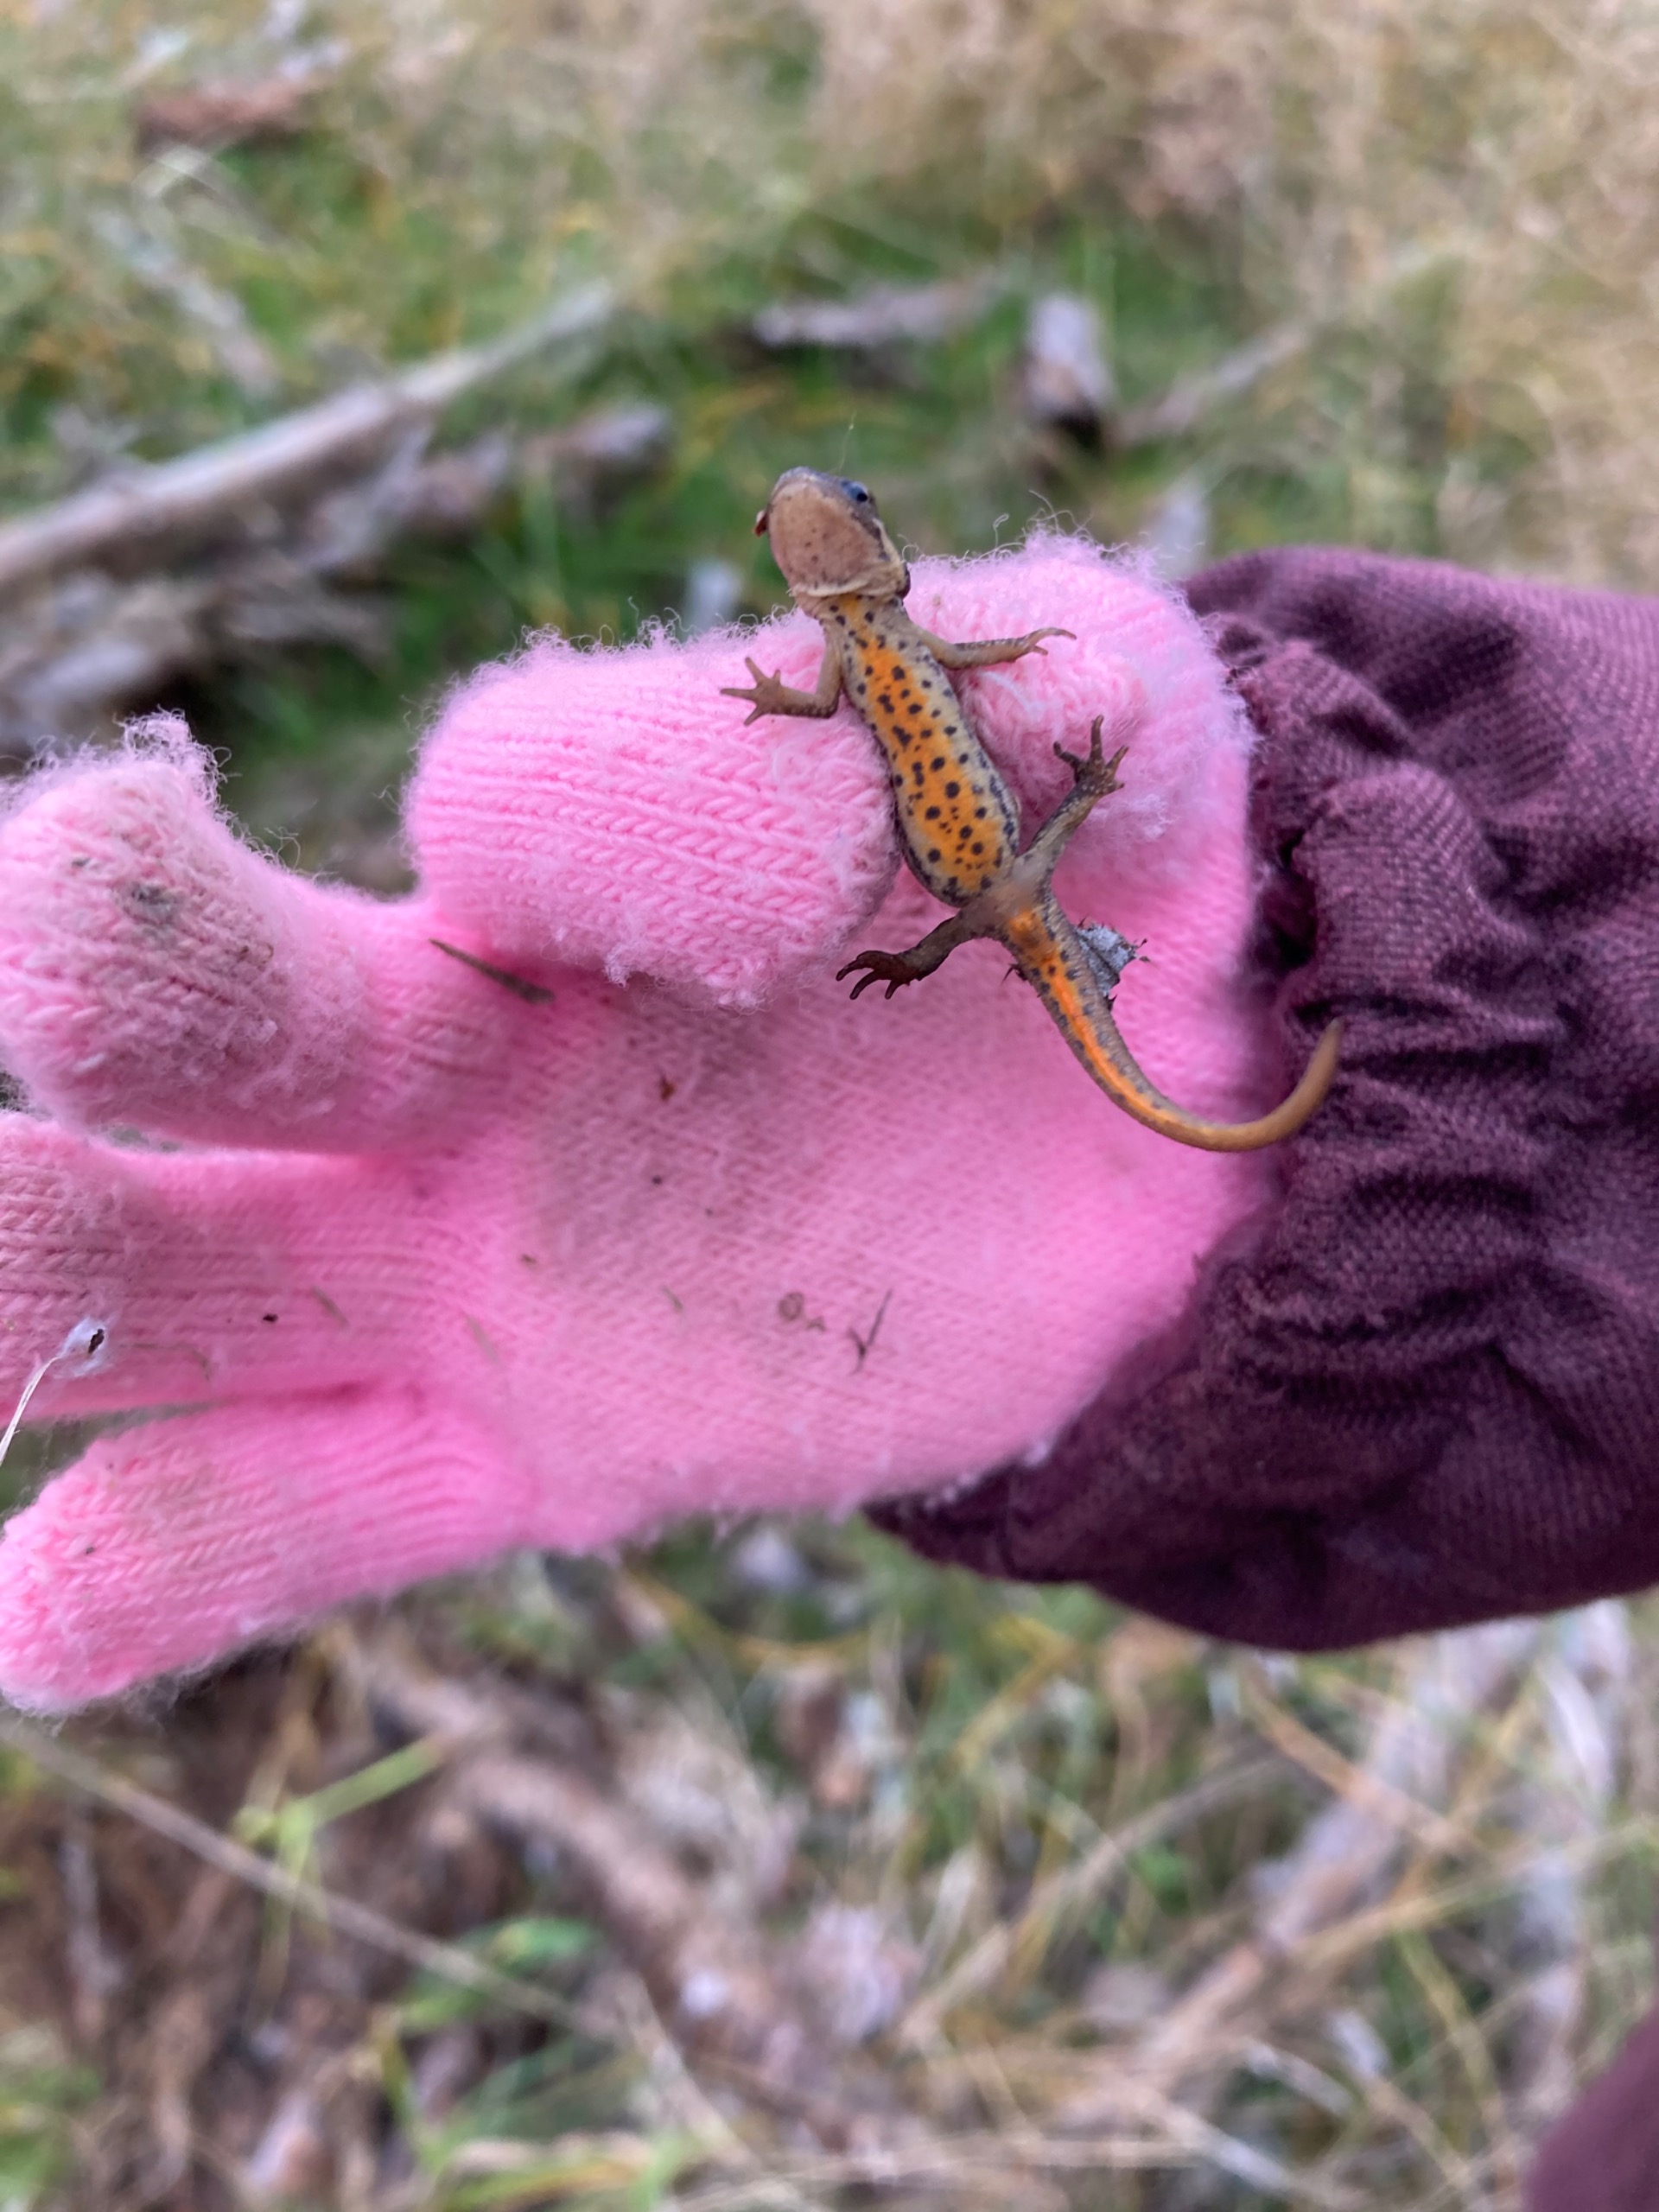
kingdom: Animalia
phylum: Chordata
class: Amphibia
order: Caudata
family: Salamandridae
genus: Lissotriton
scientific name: Lissotriton vulgaris
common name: Lille vandsalamander
